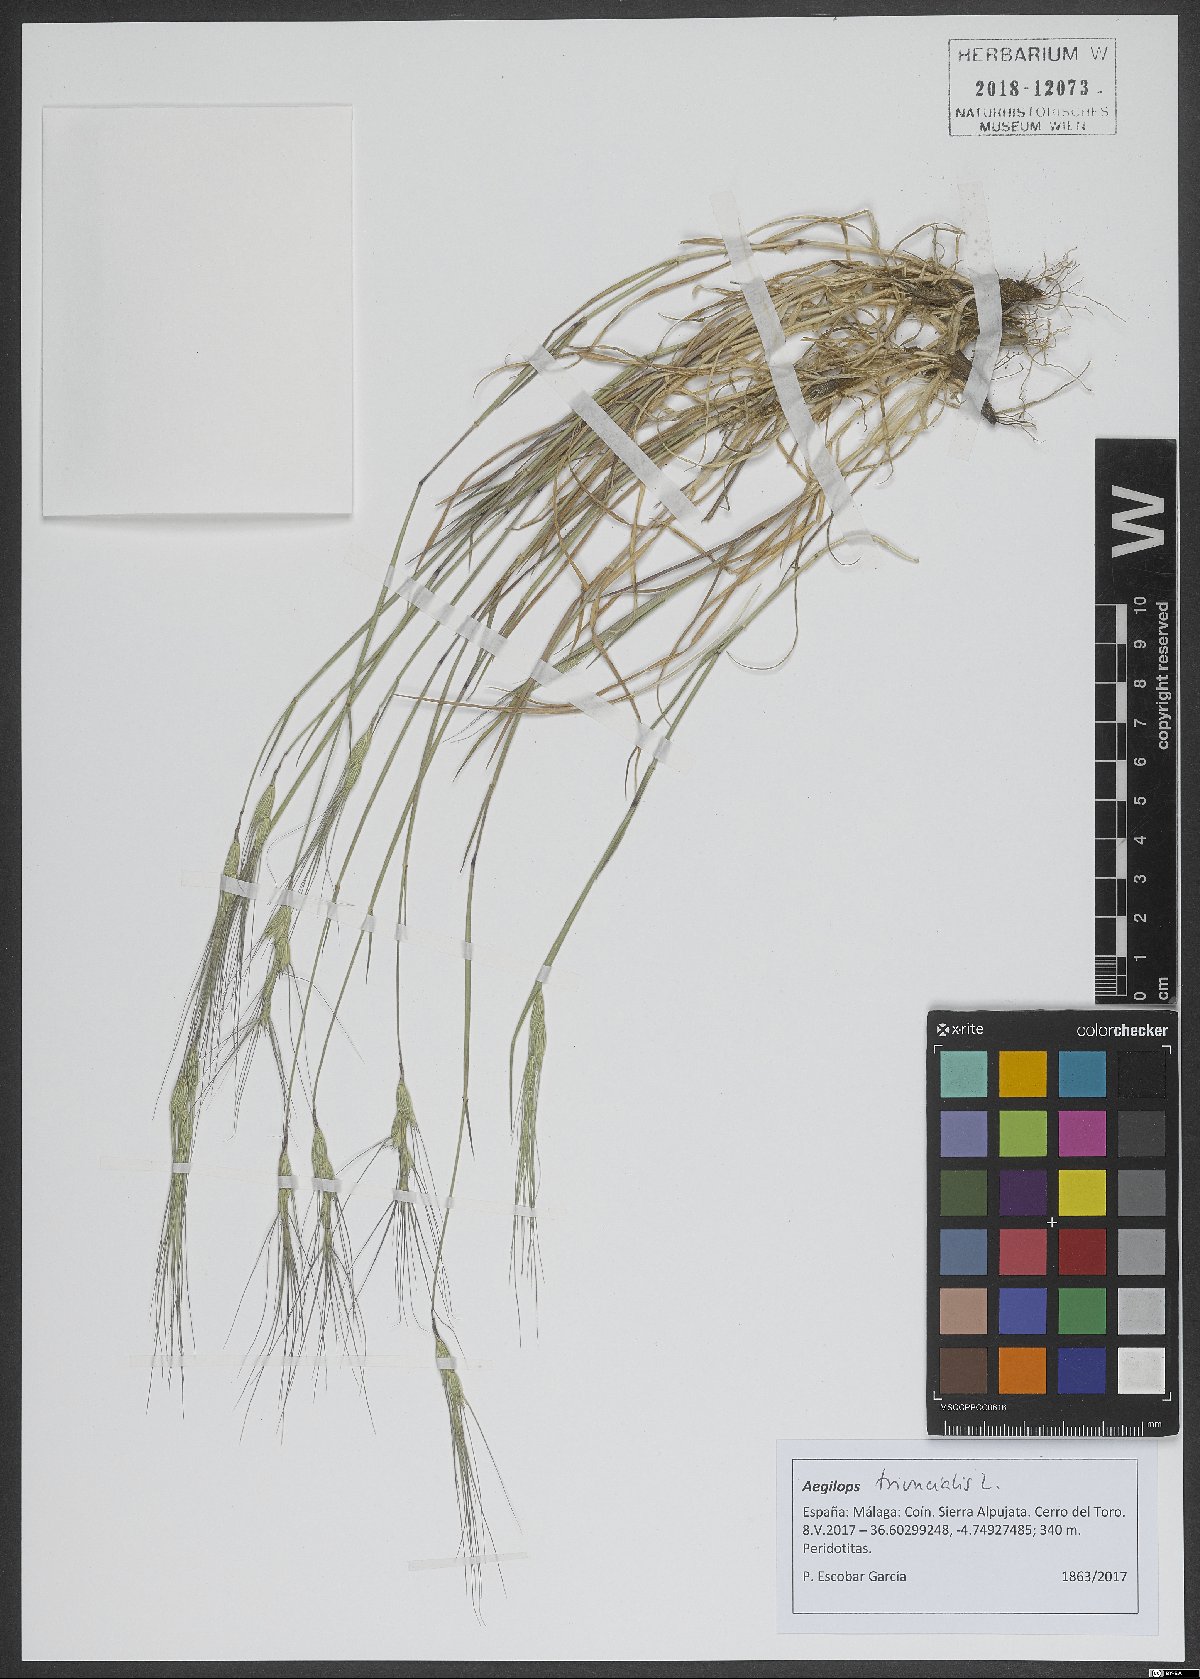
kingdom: Plantae
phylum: Tracheophyta
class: Liliopsida
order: Poales
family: Poaceae
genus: Aegilops
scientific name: Aegilops triuncialis
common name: Barb goat grass
